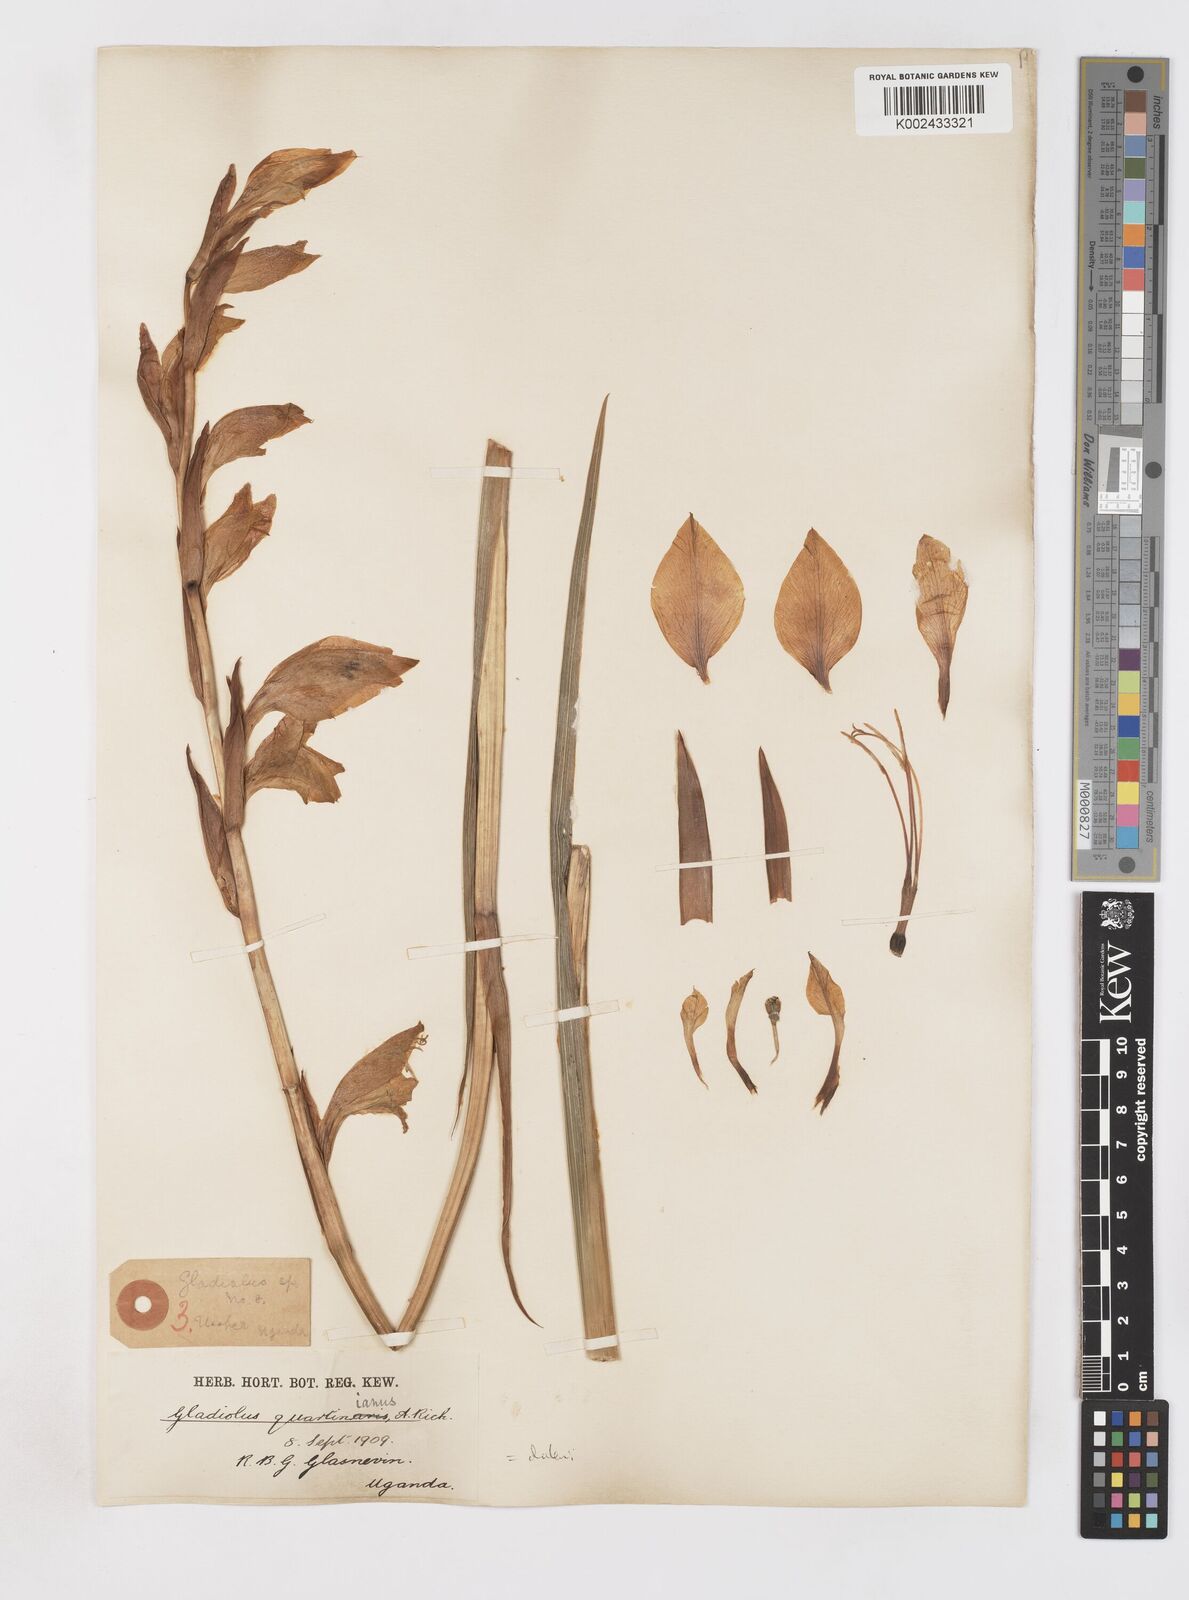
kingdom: Plantae
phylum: Tracheophyta
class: Liliopsida
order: Asparagales
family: Iridaceae
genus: Gladiolus
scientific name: Gladiolus dalenii
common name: Cornflag
